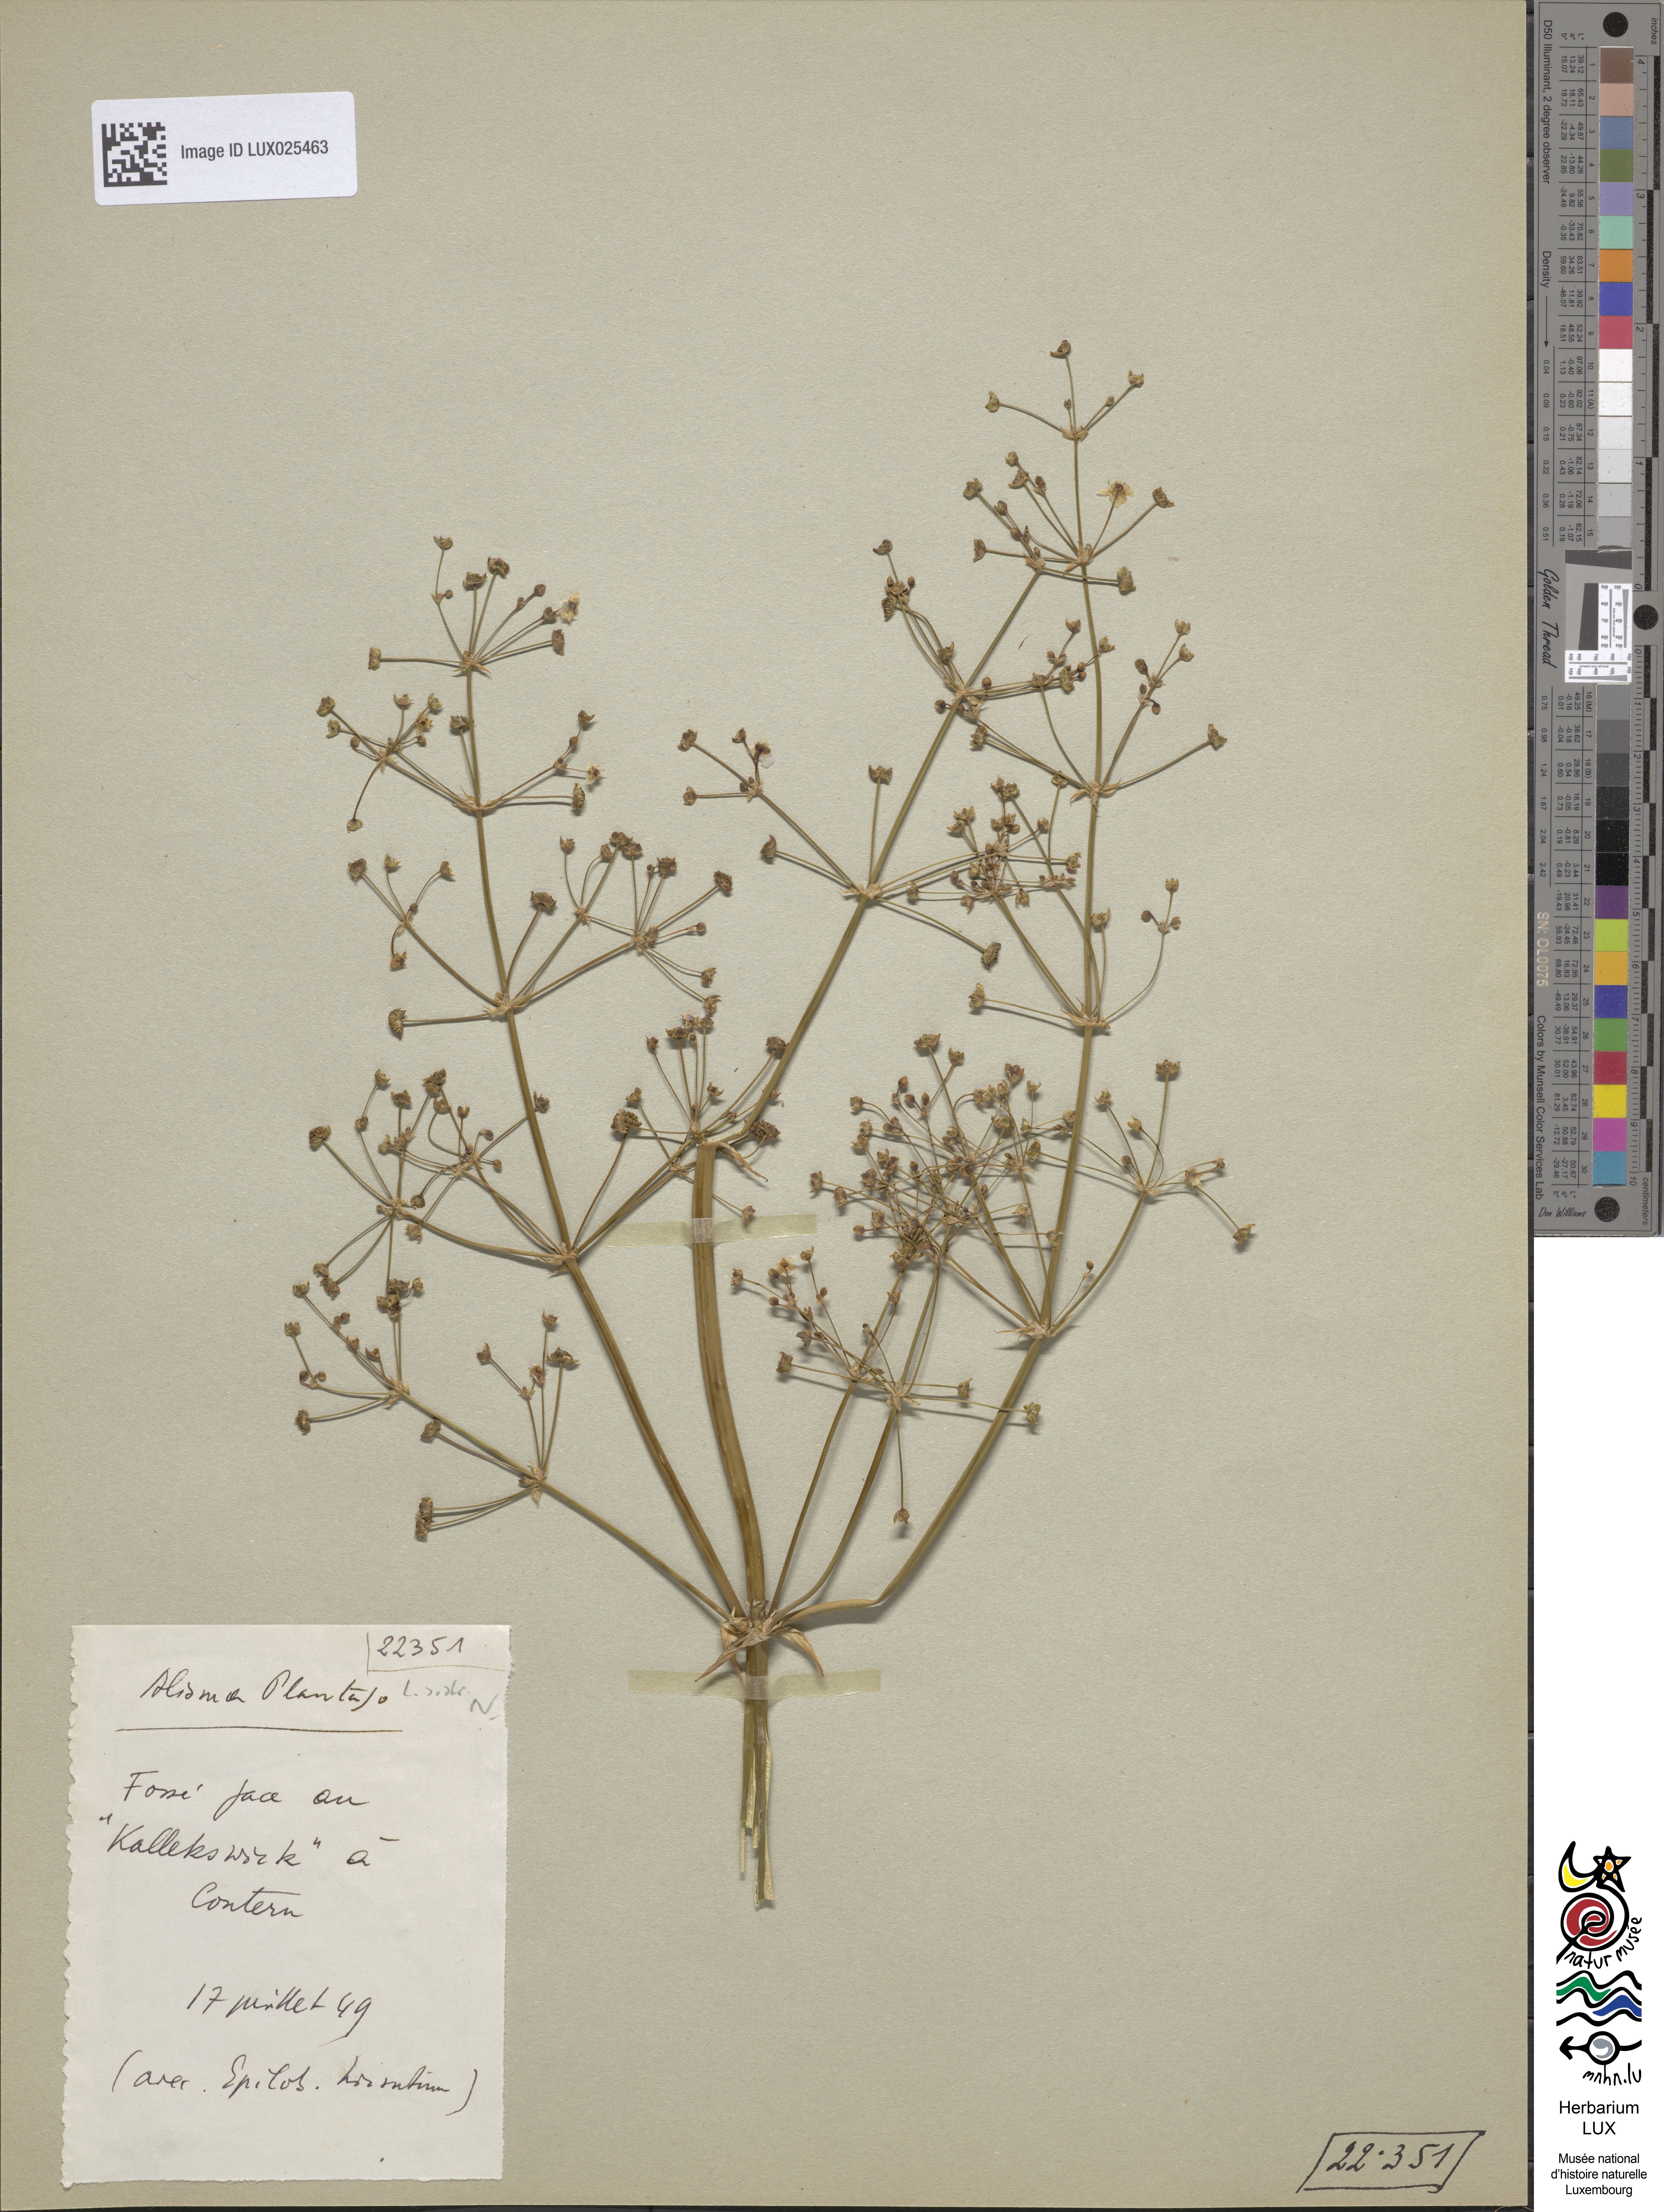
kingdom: Plantae
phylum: Tracheophyta
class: Liliopsida
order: Alismatales
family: Alismataceae
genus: Alisma
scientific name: Alisma plantago-aquatica
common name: Water-plantain
